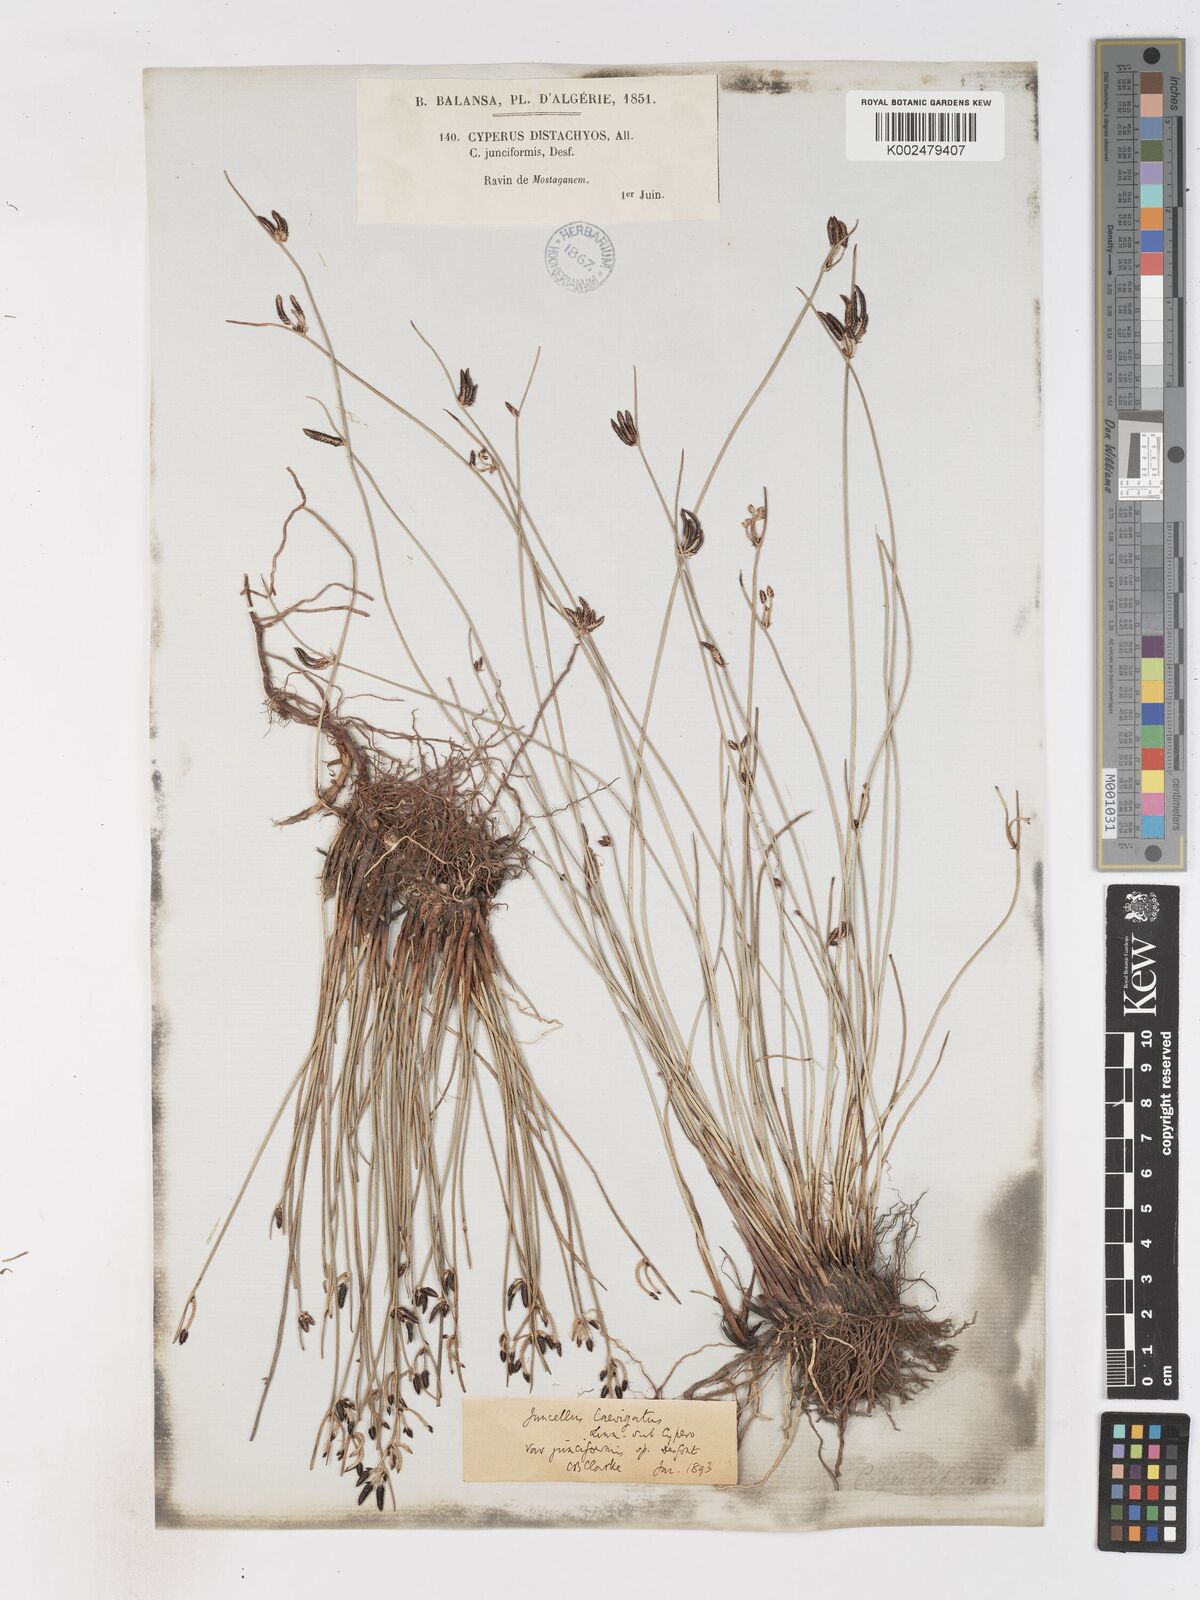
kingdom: Plantae
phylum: Tracheophyta
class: Liliopsida
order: Poales
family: Cyperaceae
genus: Cyperus
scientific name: Cyperus laevigatus
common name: Smooth flat sedge
